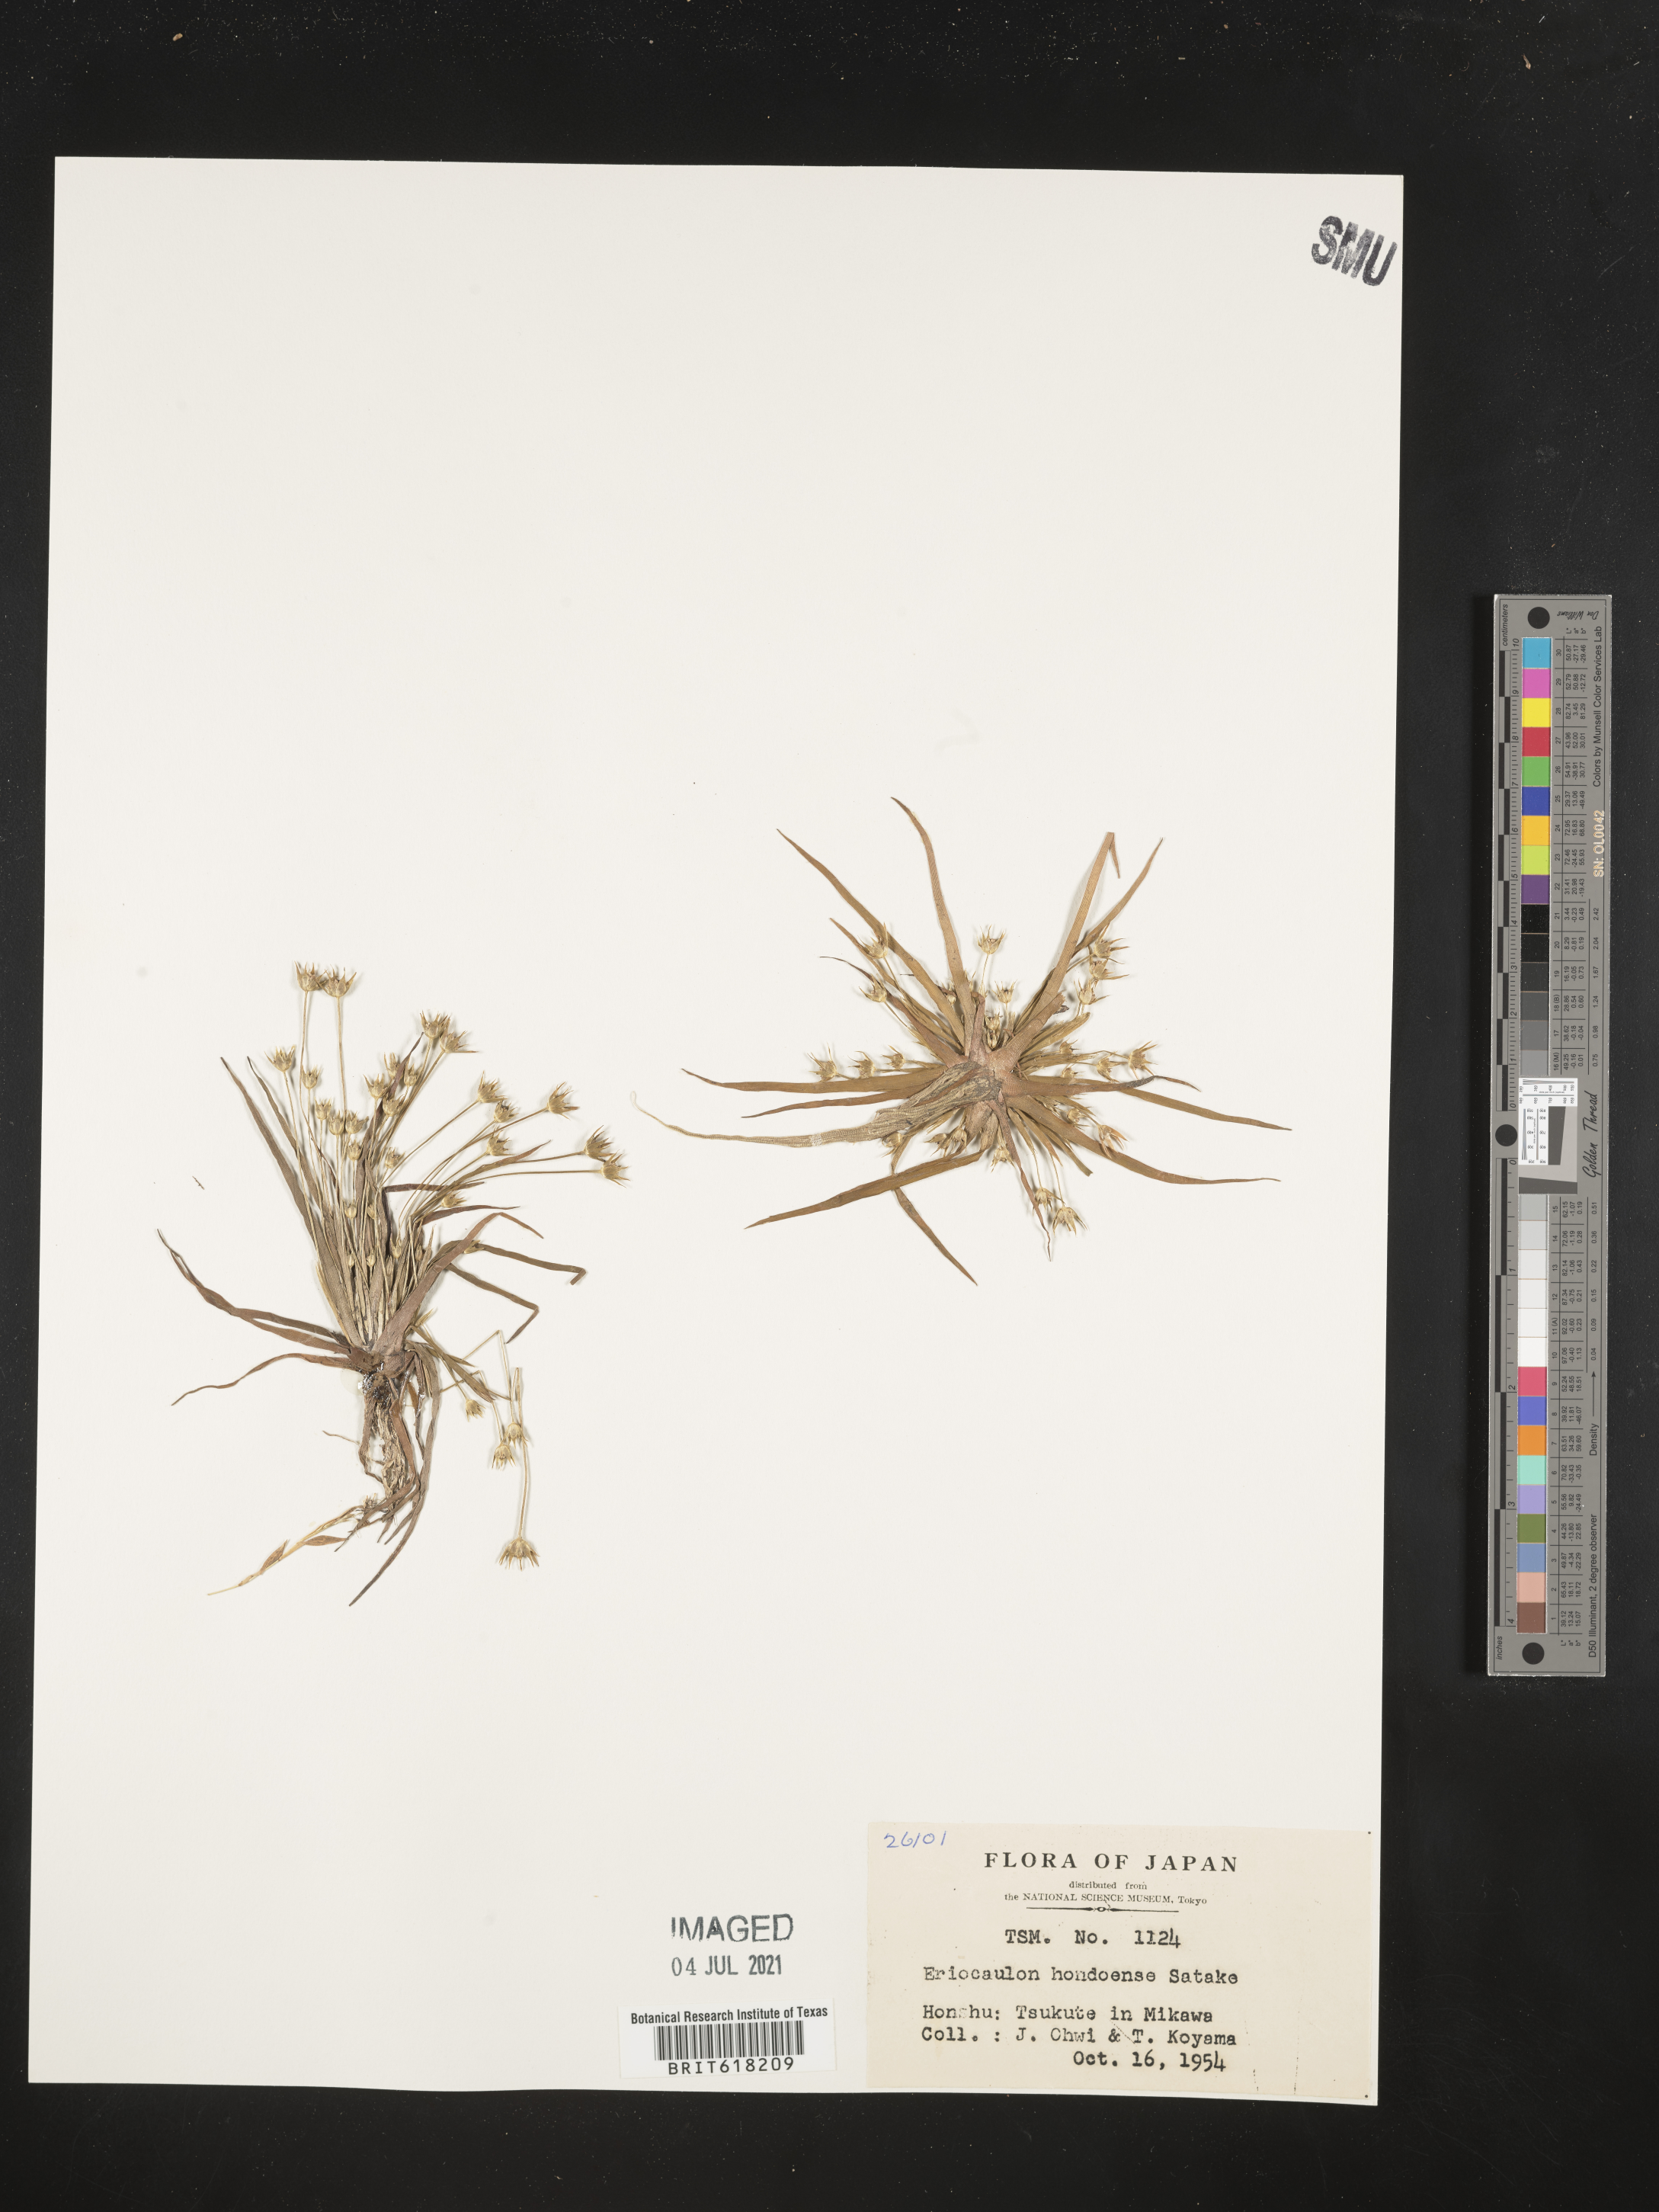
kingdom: Plantae
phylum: Tracheophyta
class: Liliopsida
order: Poales
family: Eriocaulaceae
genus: Eriocaulon
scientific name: Eriocaulon taquetii
